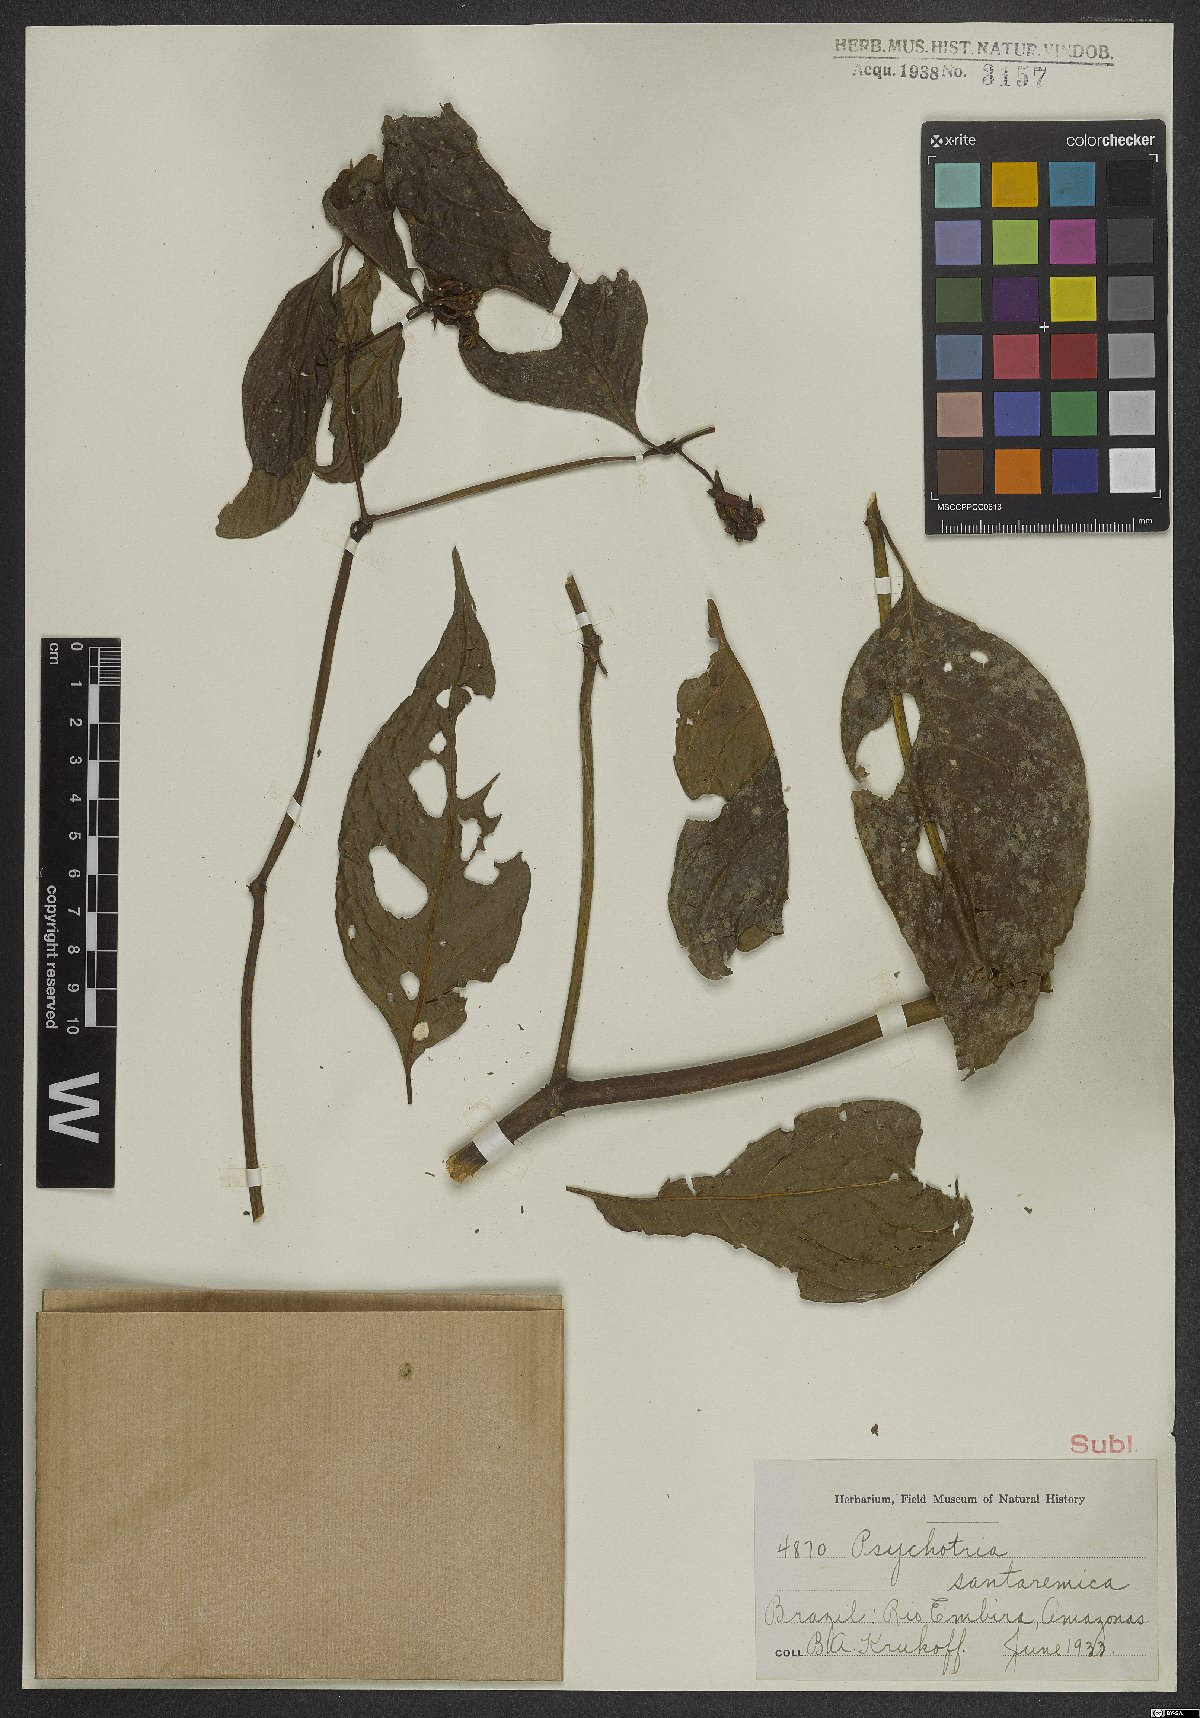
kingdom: Plantae
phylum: Tracheophyta
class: Magnoliopsida
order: Gentianales
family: Rubiaceae
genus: Psychotria
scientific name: Psychotria santaremica
